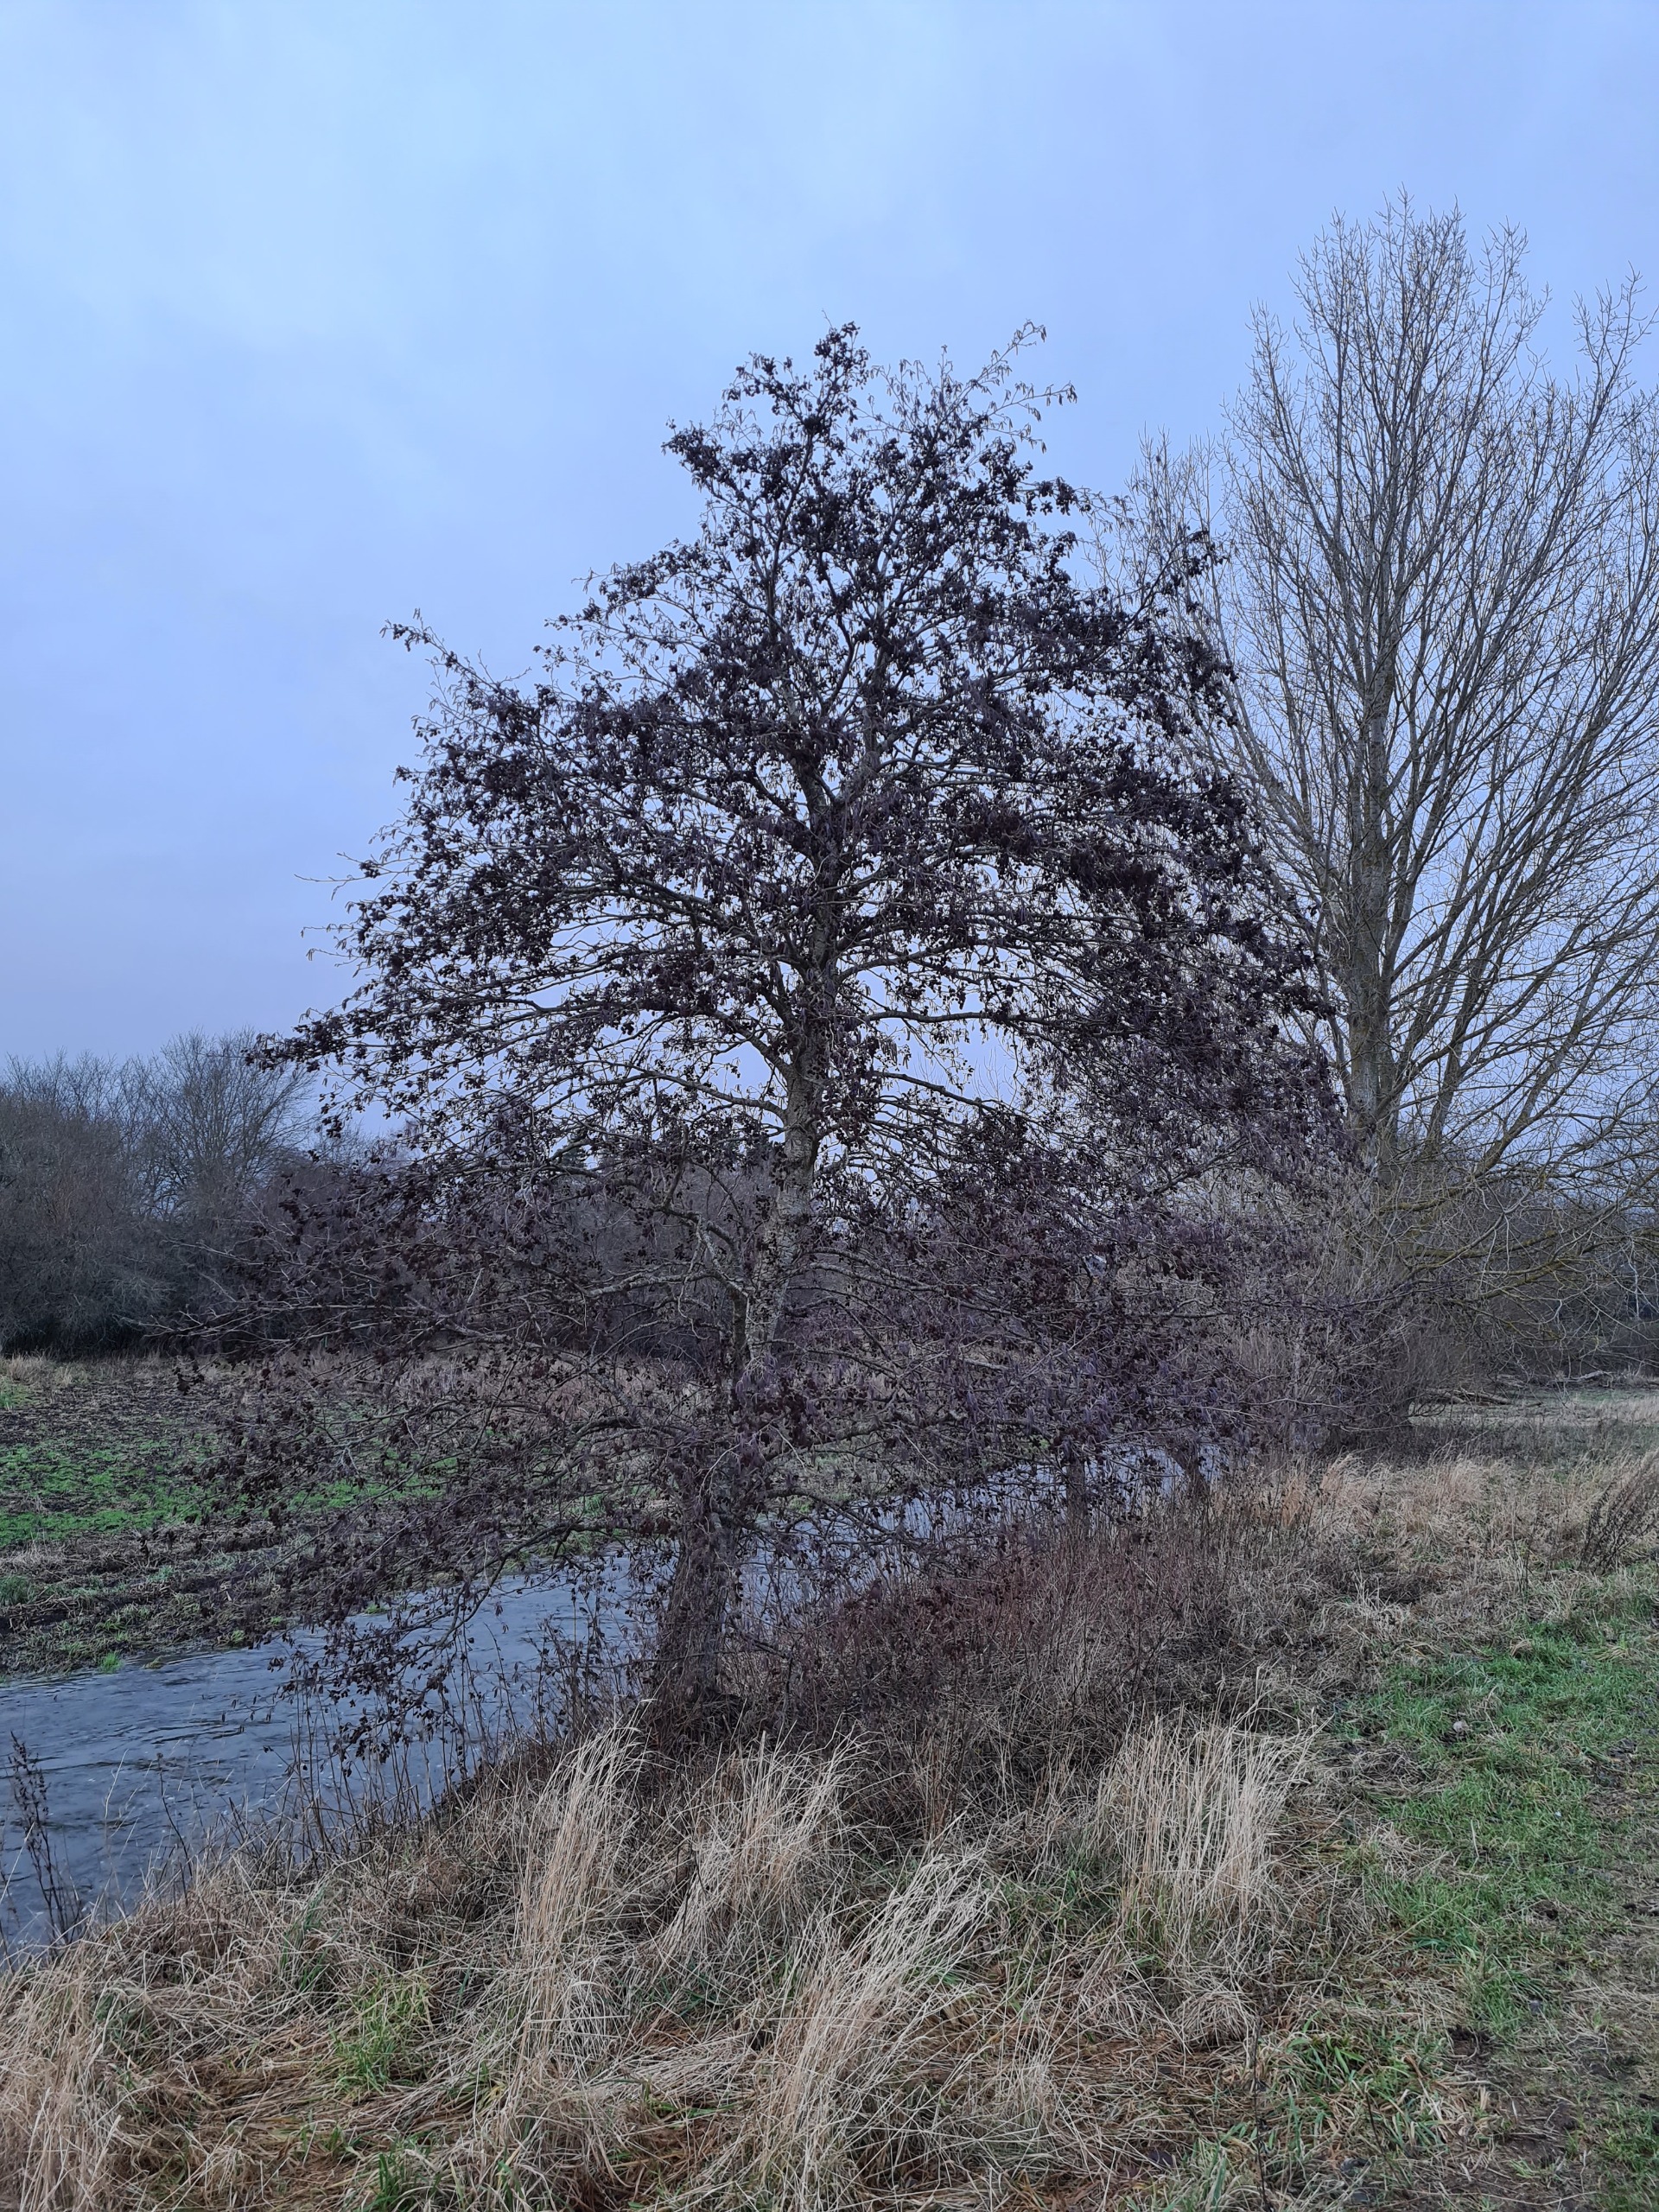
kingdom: Plantae
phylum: Tracheophyta
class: Magnoliopsida
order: Fagales
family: Betulaceae
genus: Alnus
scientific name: Alnus glutinosa
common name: Rød-el
